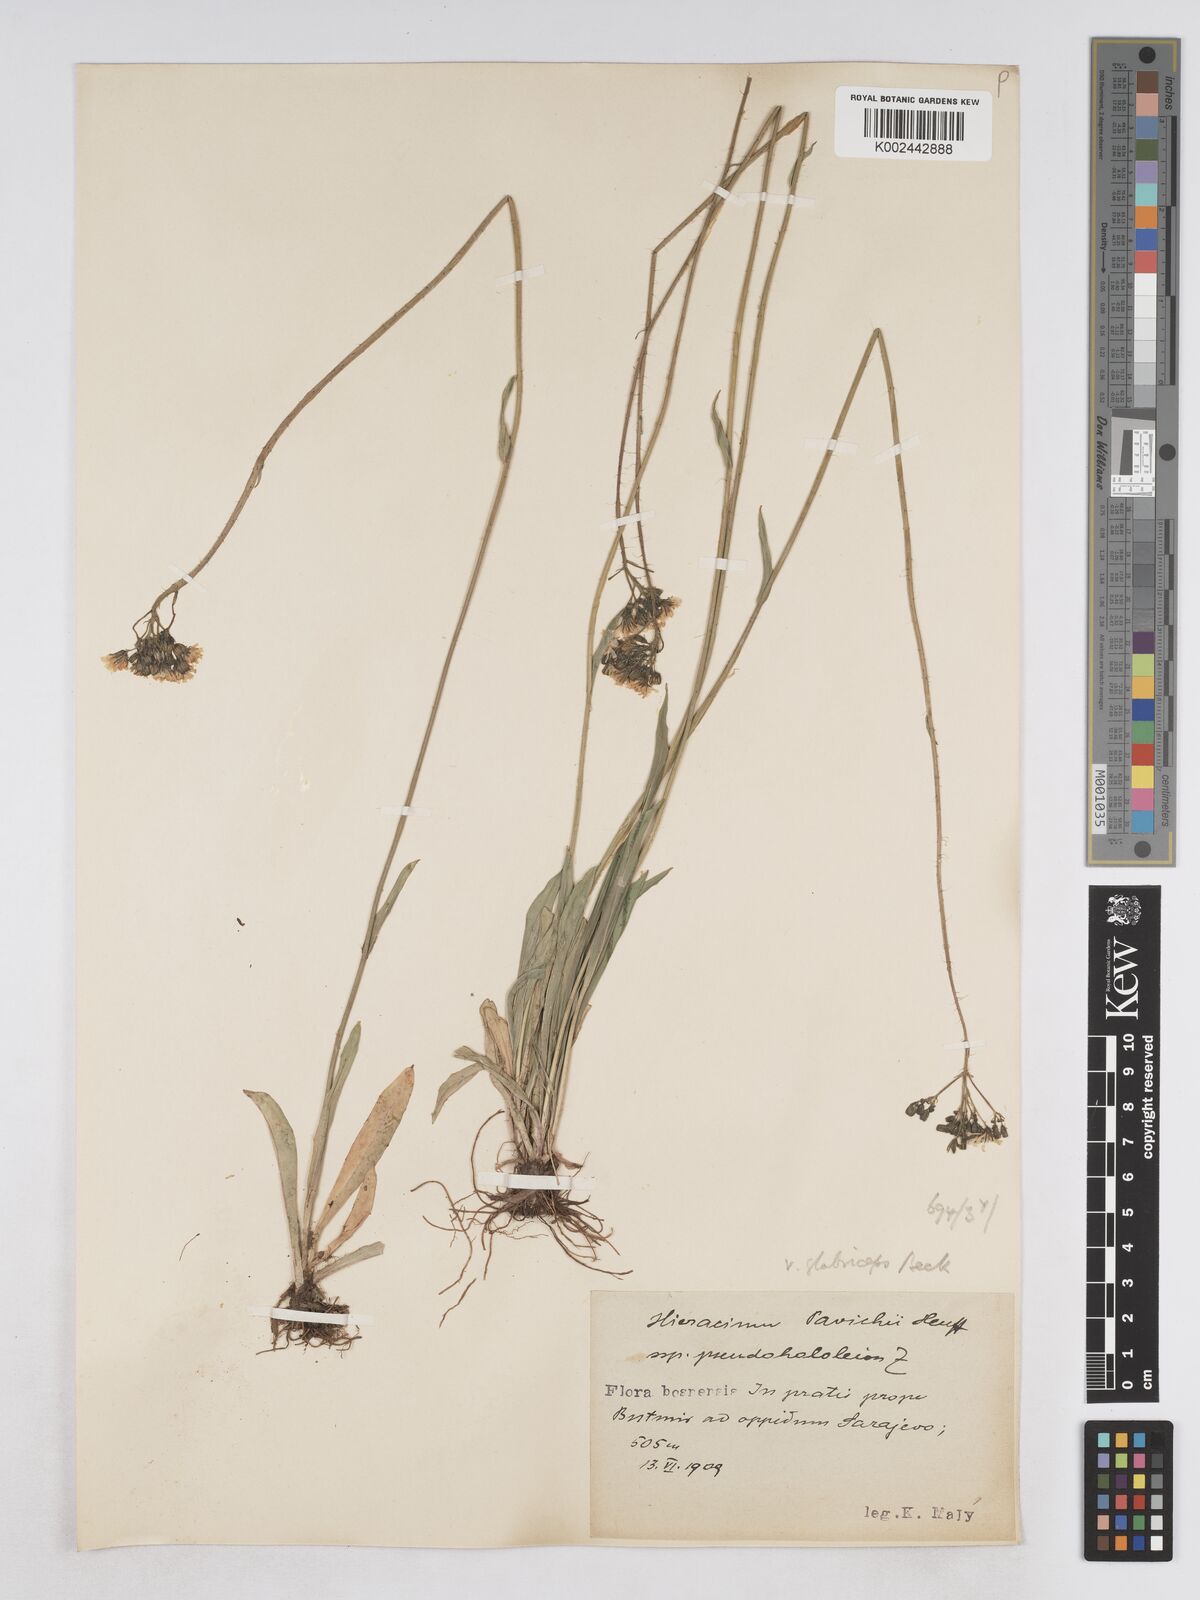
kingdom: Plantae
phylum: Tracheophyta
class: Magnoliopsida
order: Asterales
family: Asteraceae
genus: Pilosella
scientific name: Pilosella pavichii
